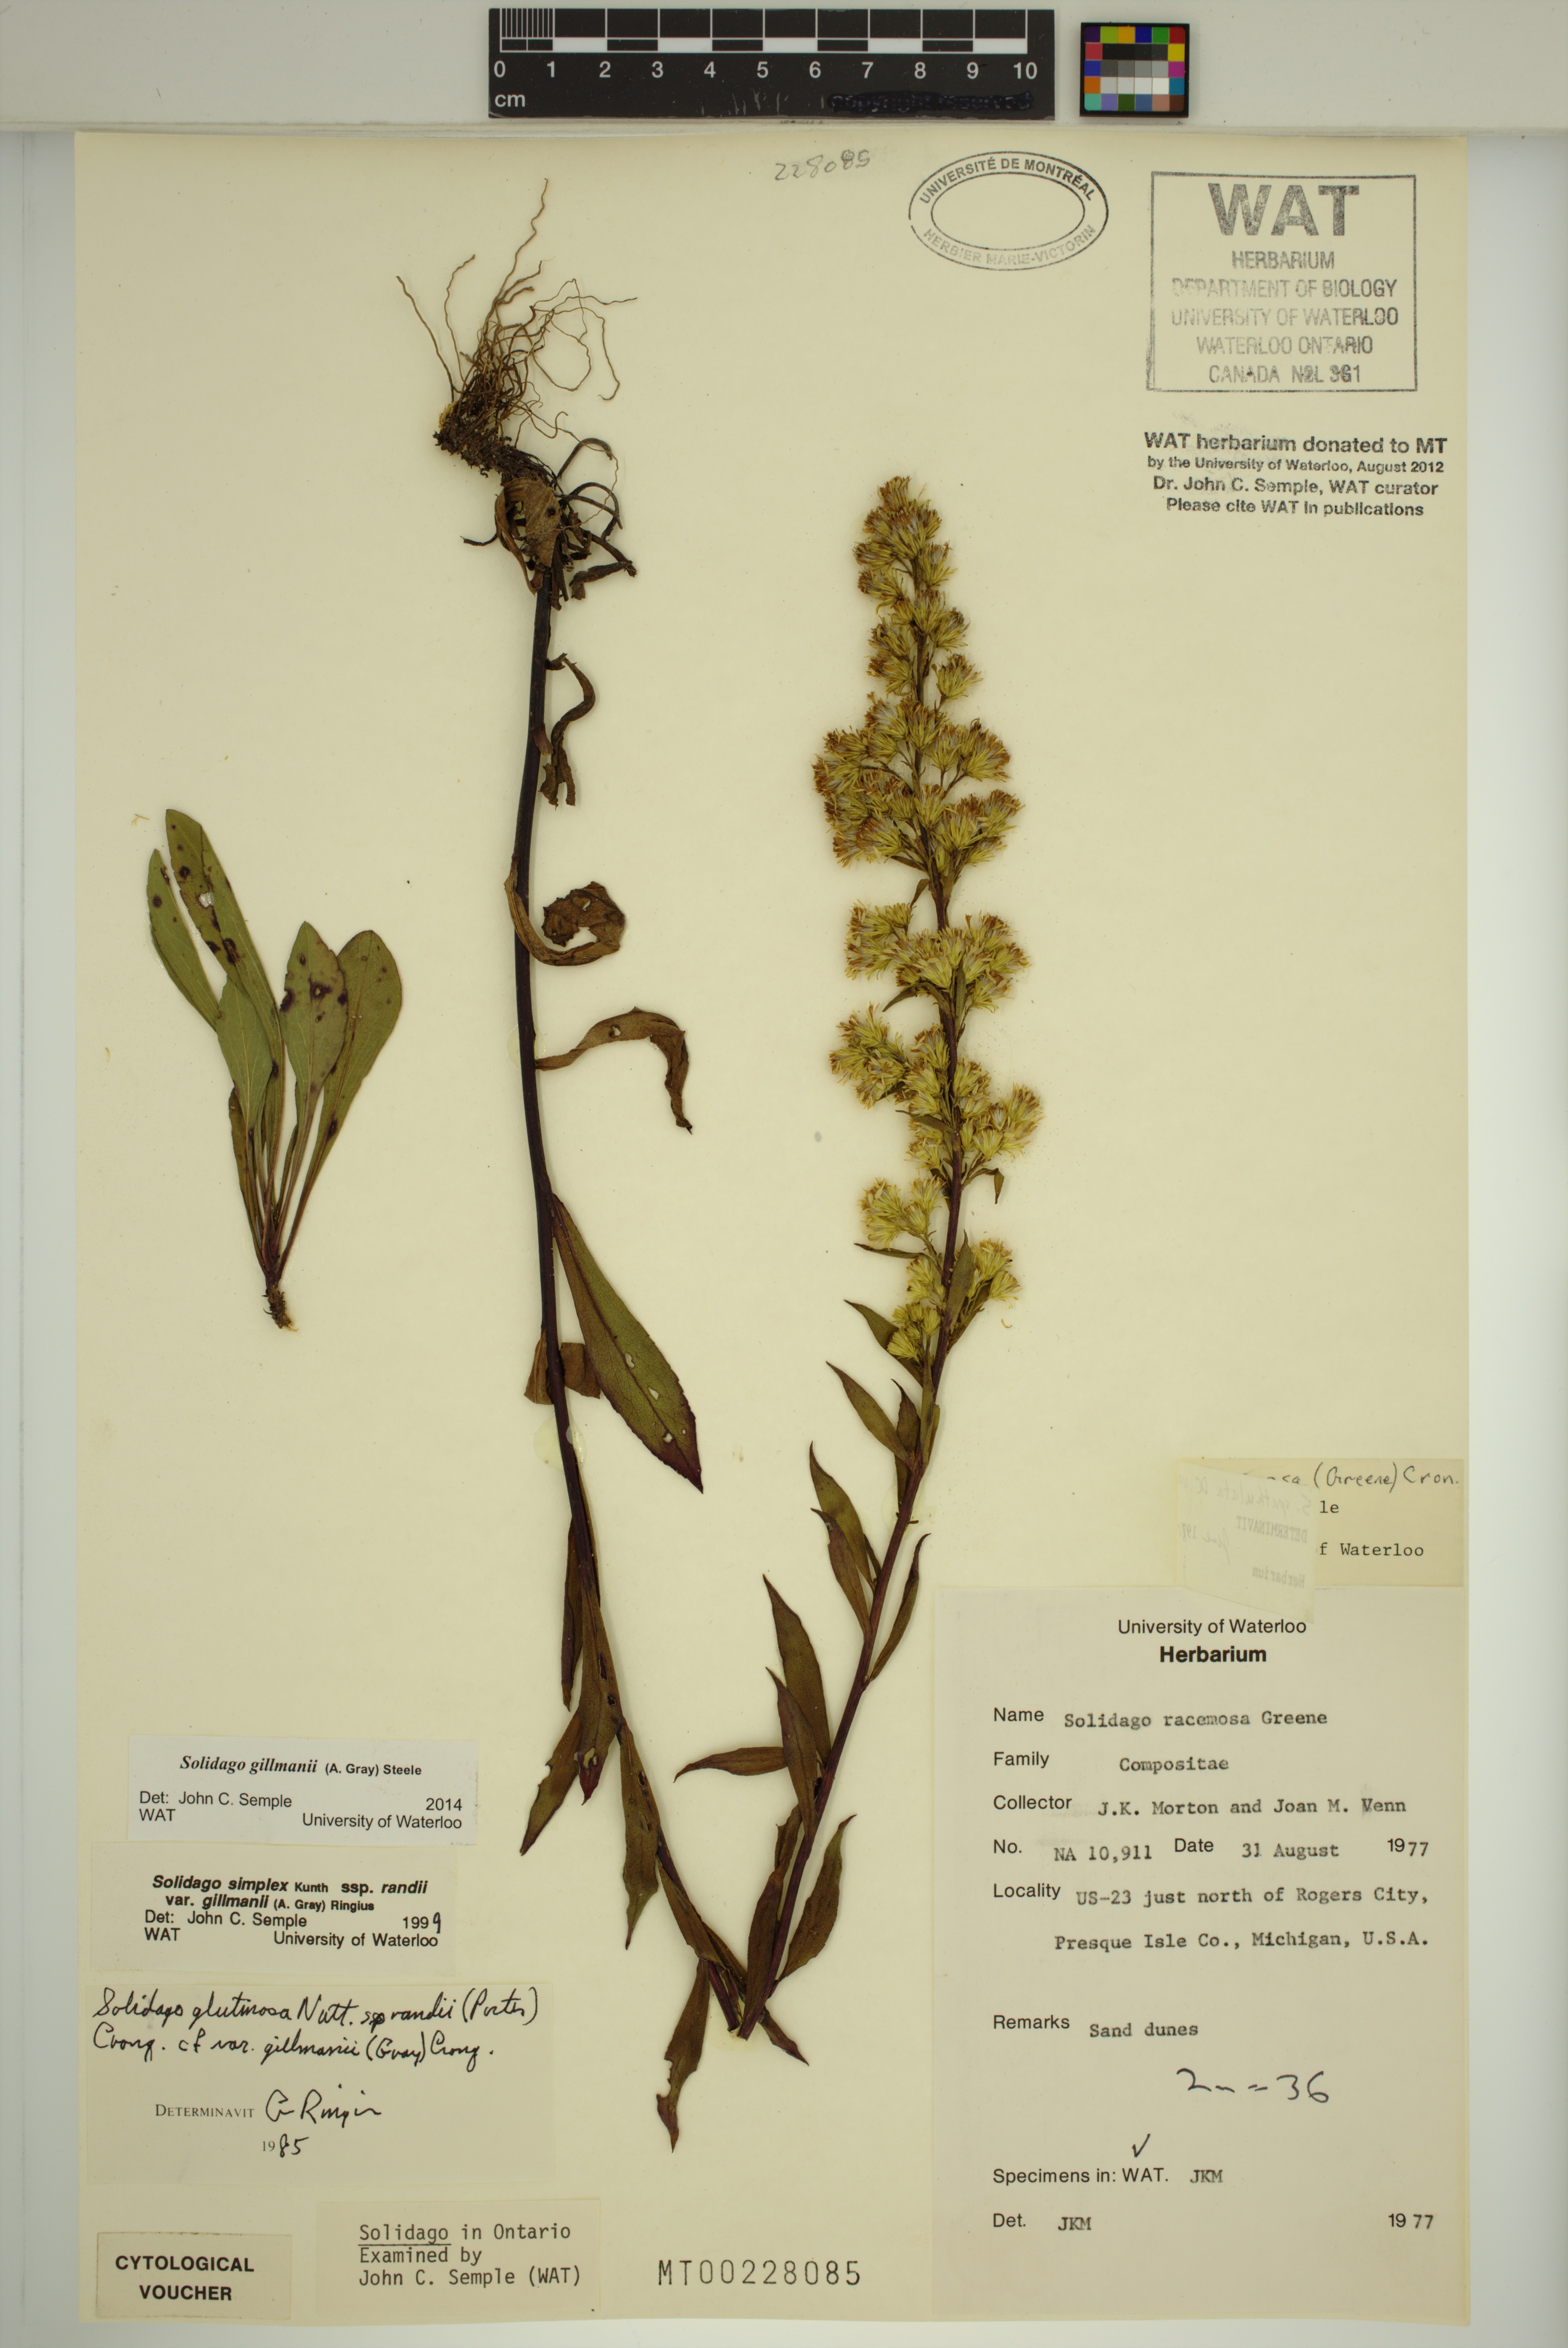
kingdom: Plantae
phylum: Tracheophyta
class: Magnoliopsida
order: Asterales
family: Asteraceae
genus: Solidago
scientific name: Solidago gillmanii
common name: Gillman's goldenrod
